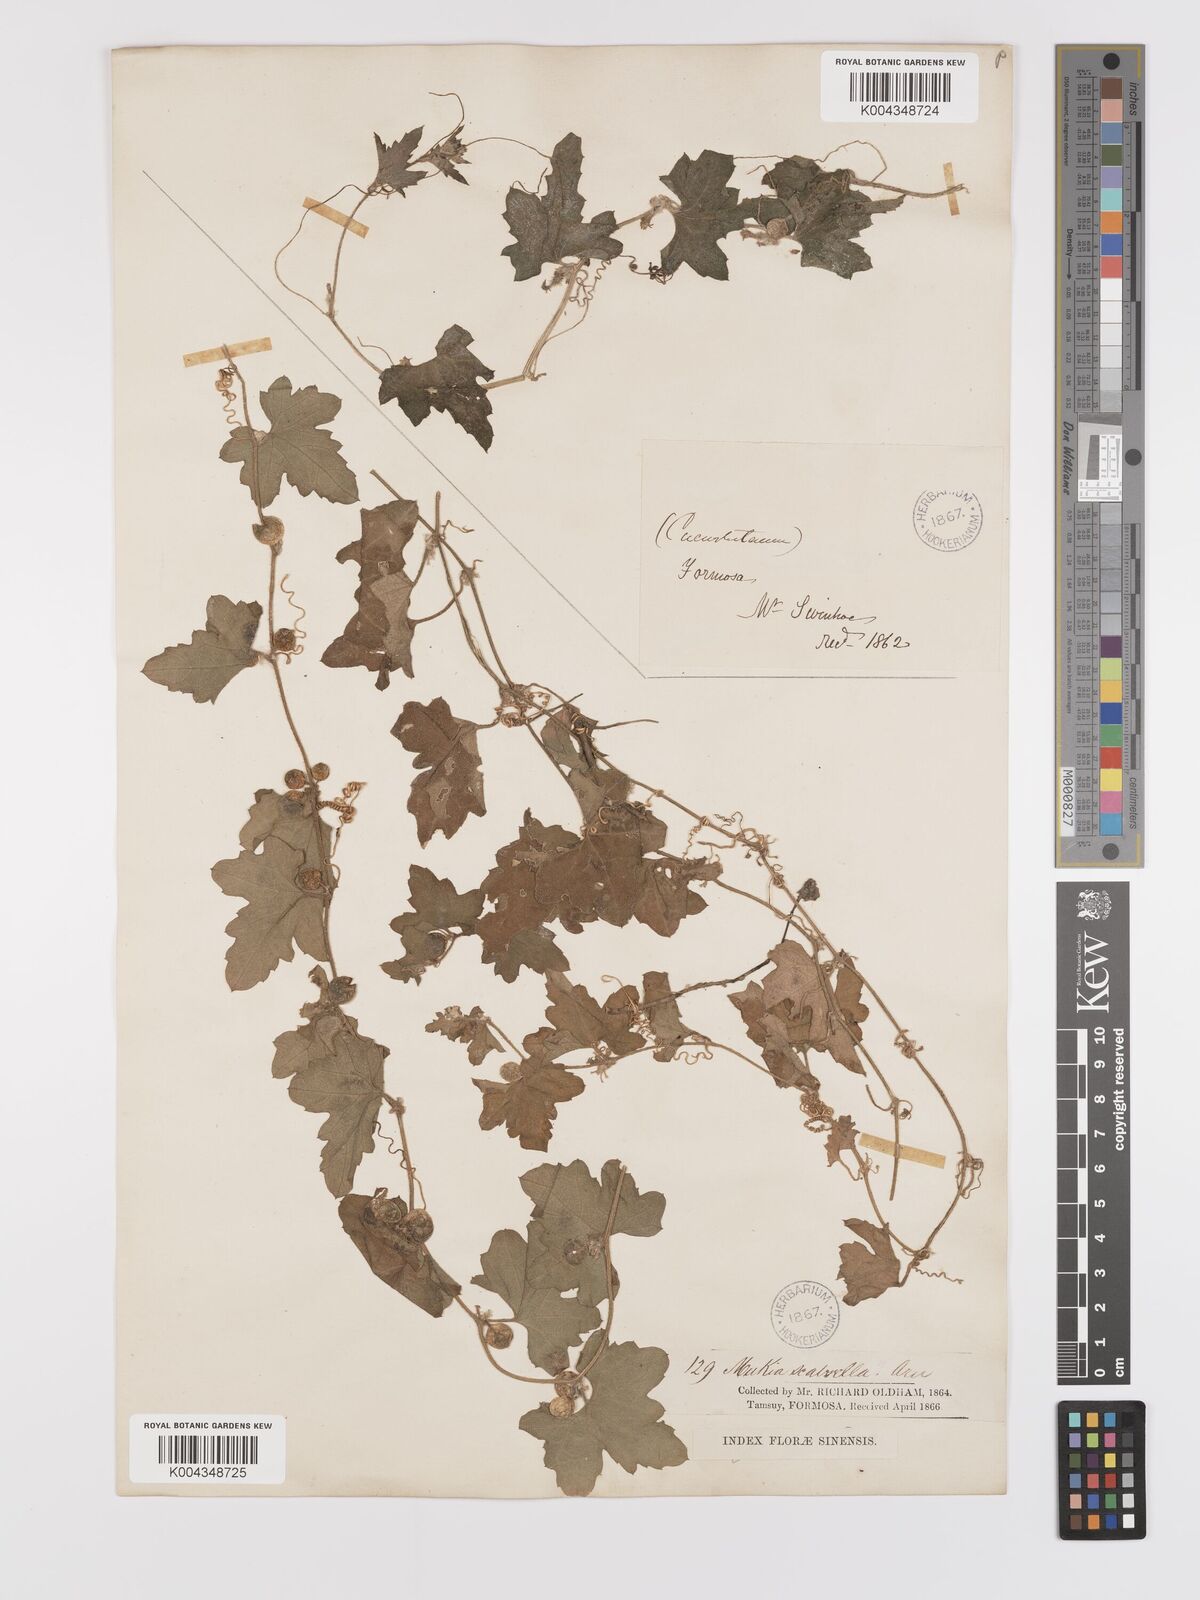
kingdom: Plantae
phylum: Tracheophyta
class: Magnoliopsida
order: Cucurbitales
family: Cucurbitaceae
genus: Cucumis
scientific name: Cucumis maderaspatanus
